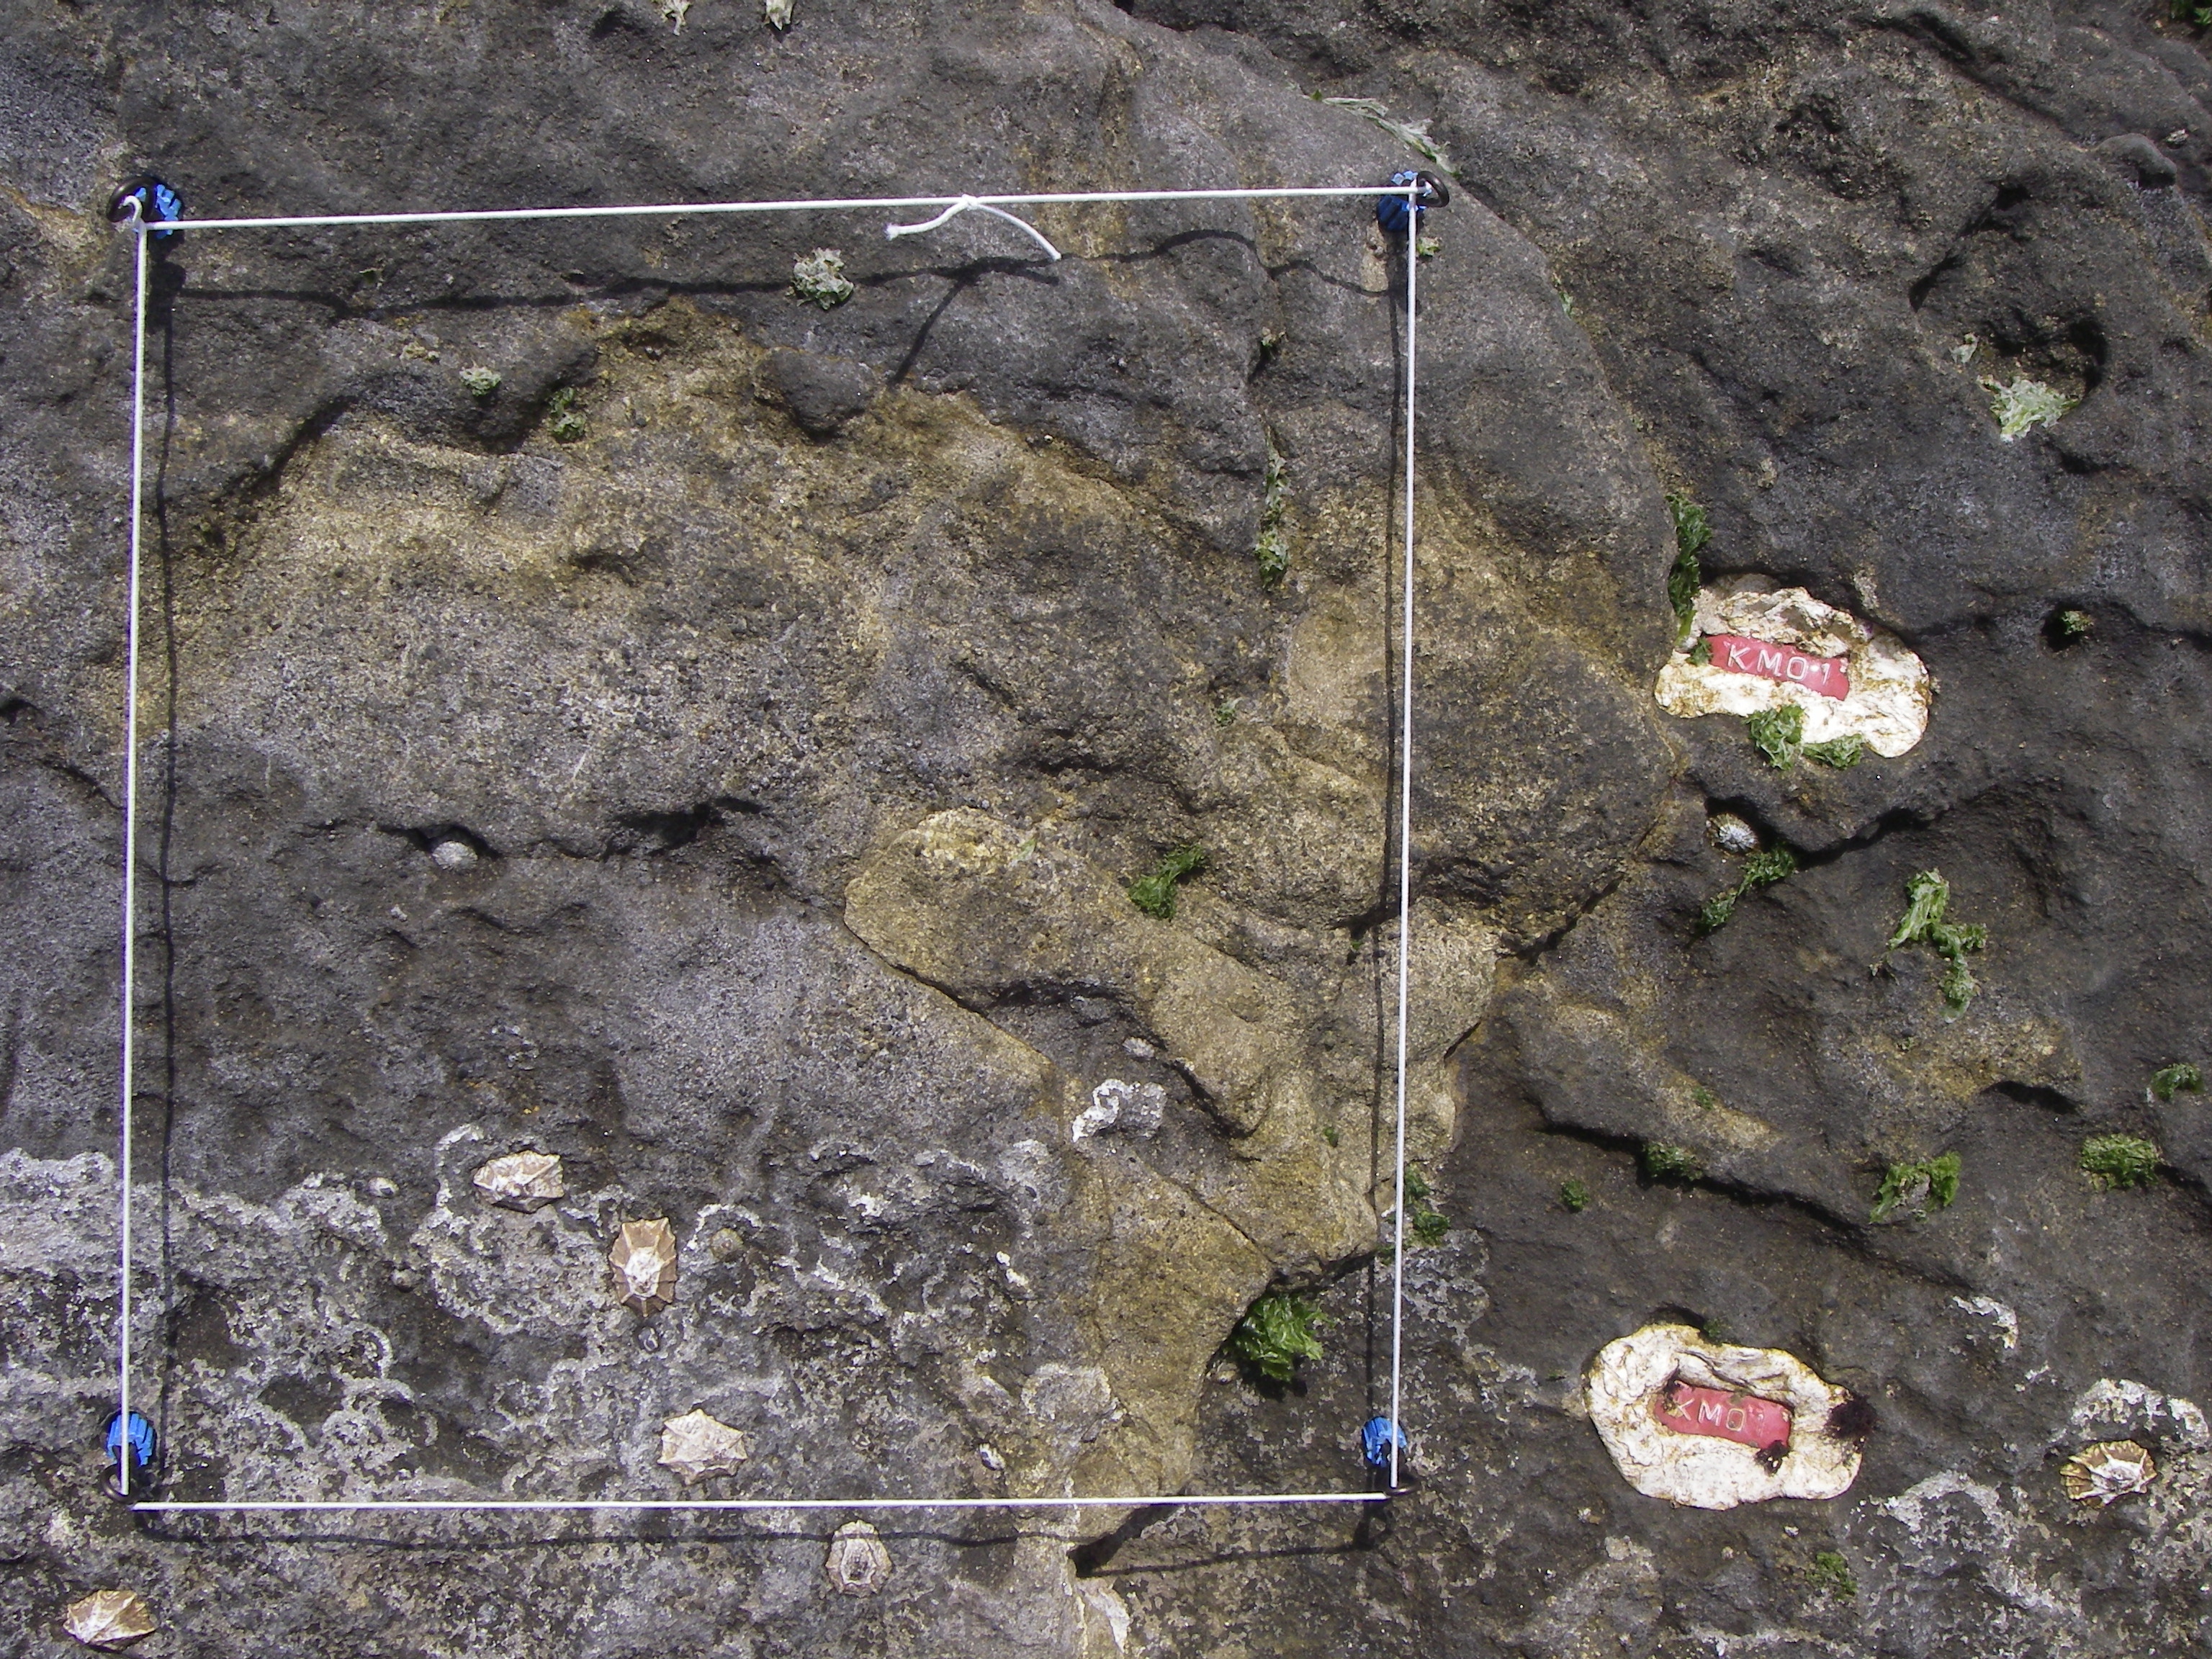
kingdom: Chromista
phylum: Ochrophyta
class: Phaeophyceae
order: Fucales
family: Sargassaceae
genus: Sargassum
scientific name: Sargassum fusiforme
